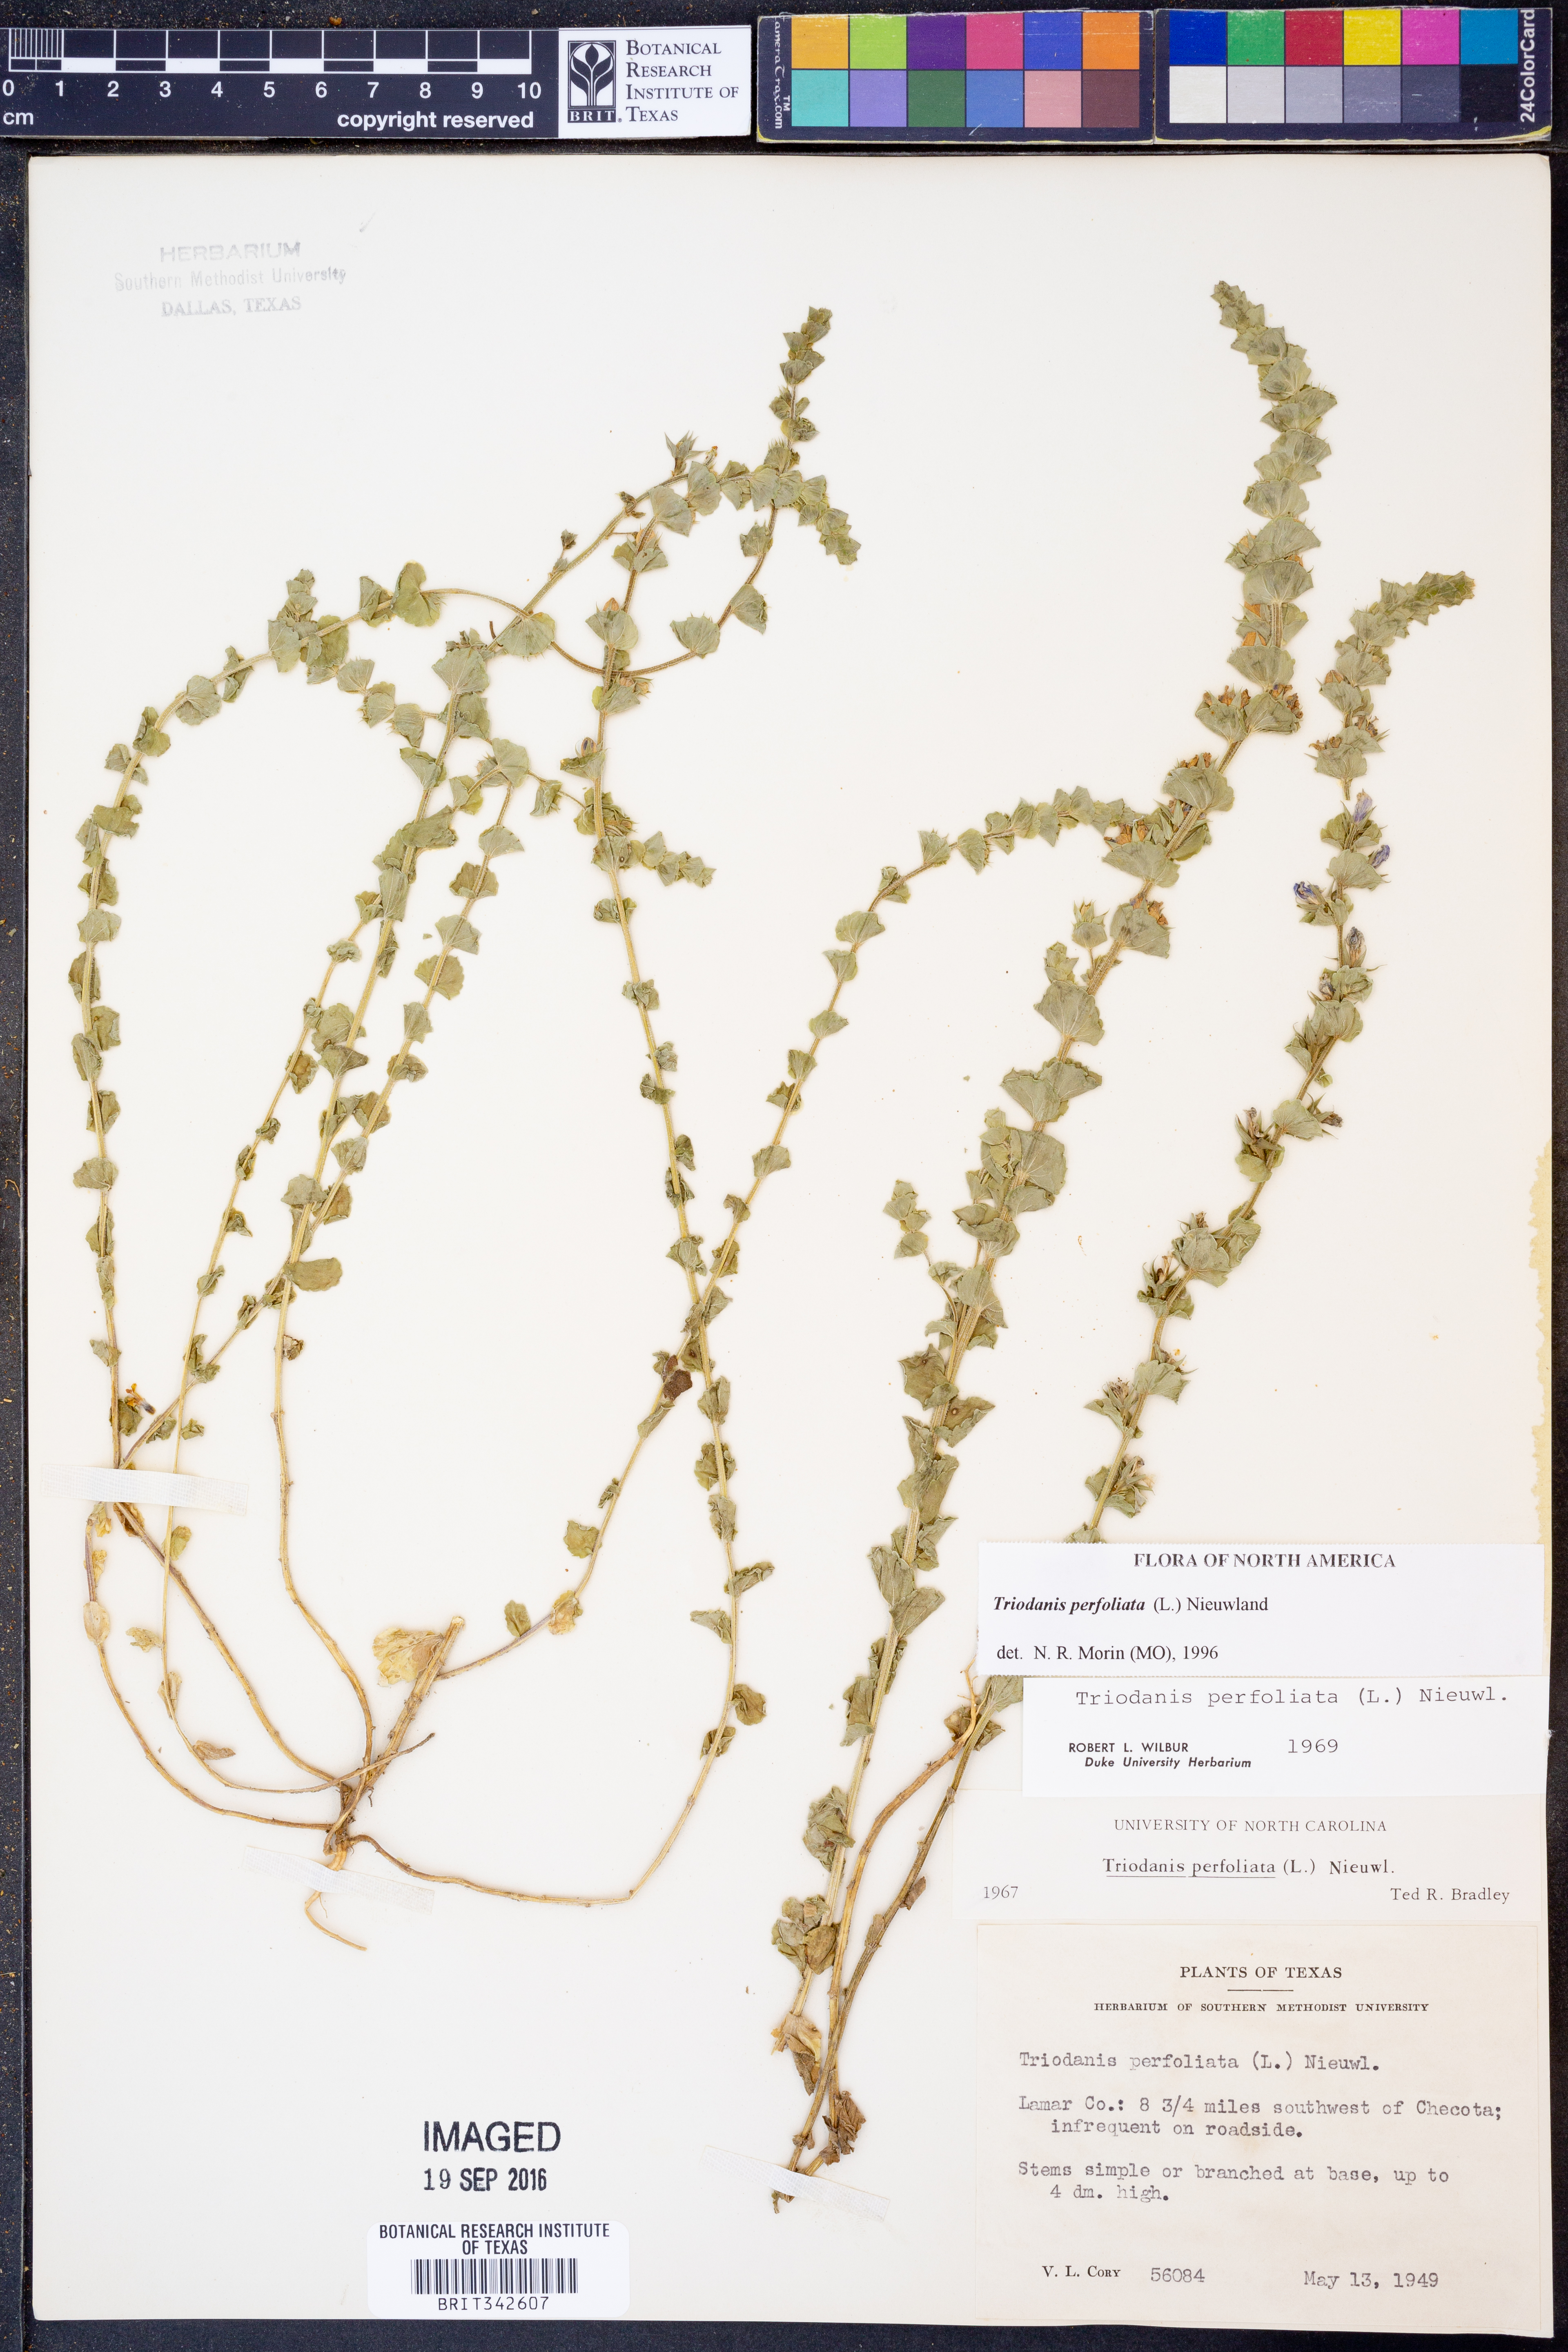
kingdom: Plantae
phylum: Tracheophyta
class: Magnoliopsida
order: Asterales
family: Campanulaceae
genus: Triodanis
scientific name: Triodanis perfoliata
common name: Clasping venus' looking-glass
